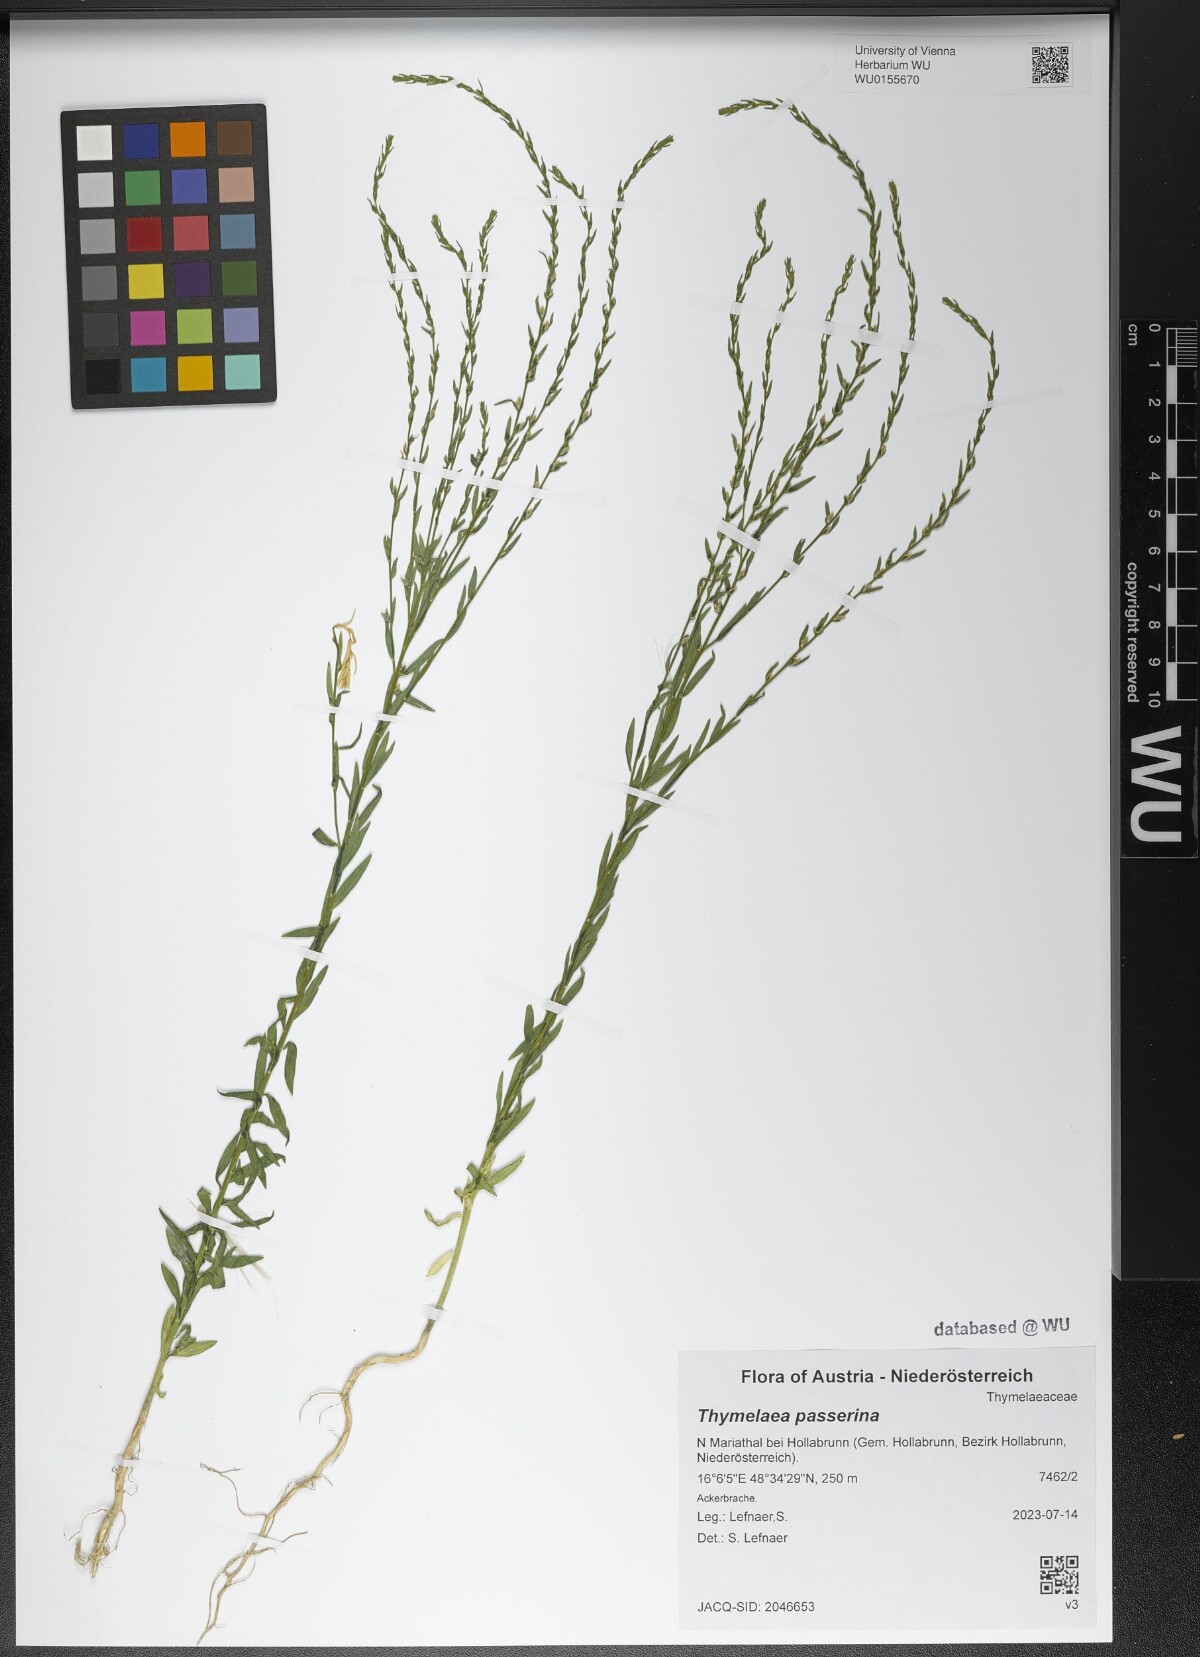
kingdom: Plantae
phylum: Tracheophyta
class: Magnoliopsida
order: Malvales
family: Thymelaeaceae
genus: Thymelaea
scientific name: Thymelaea passerina
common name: Annual thymelaea
